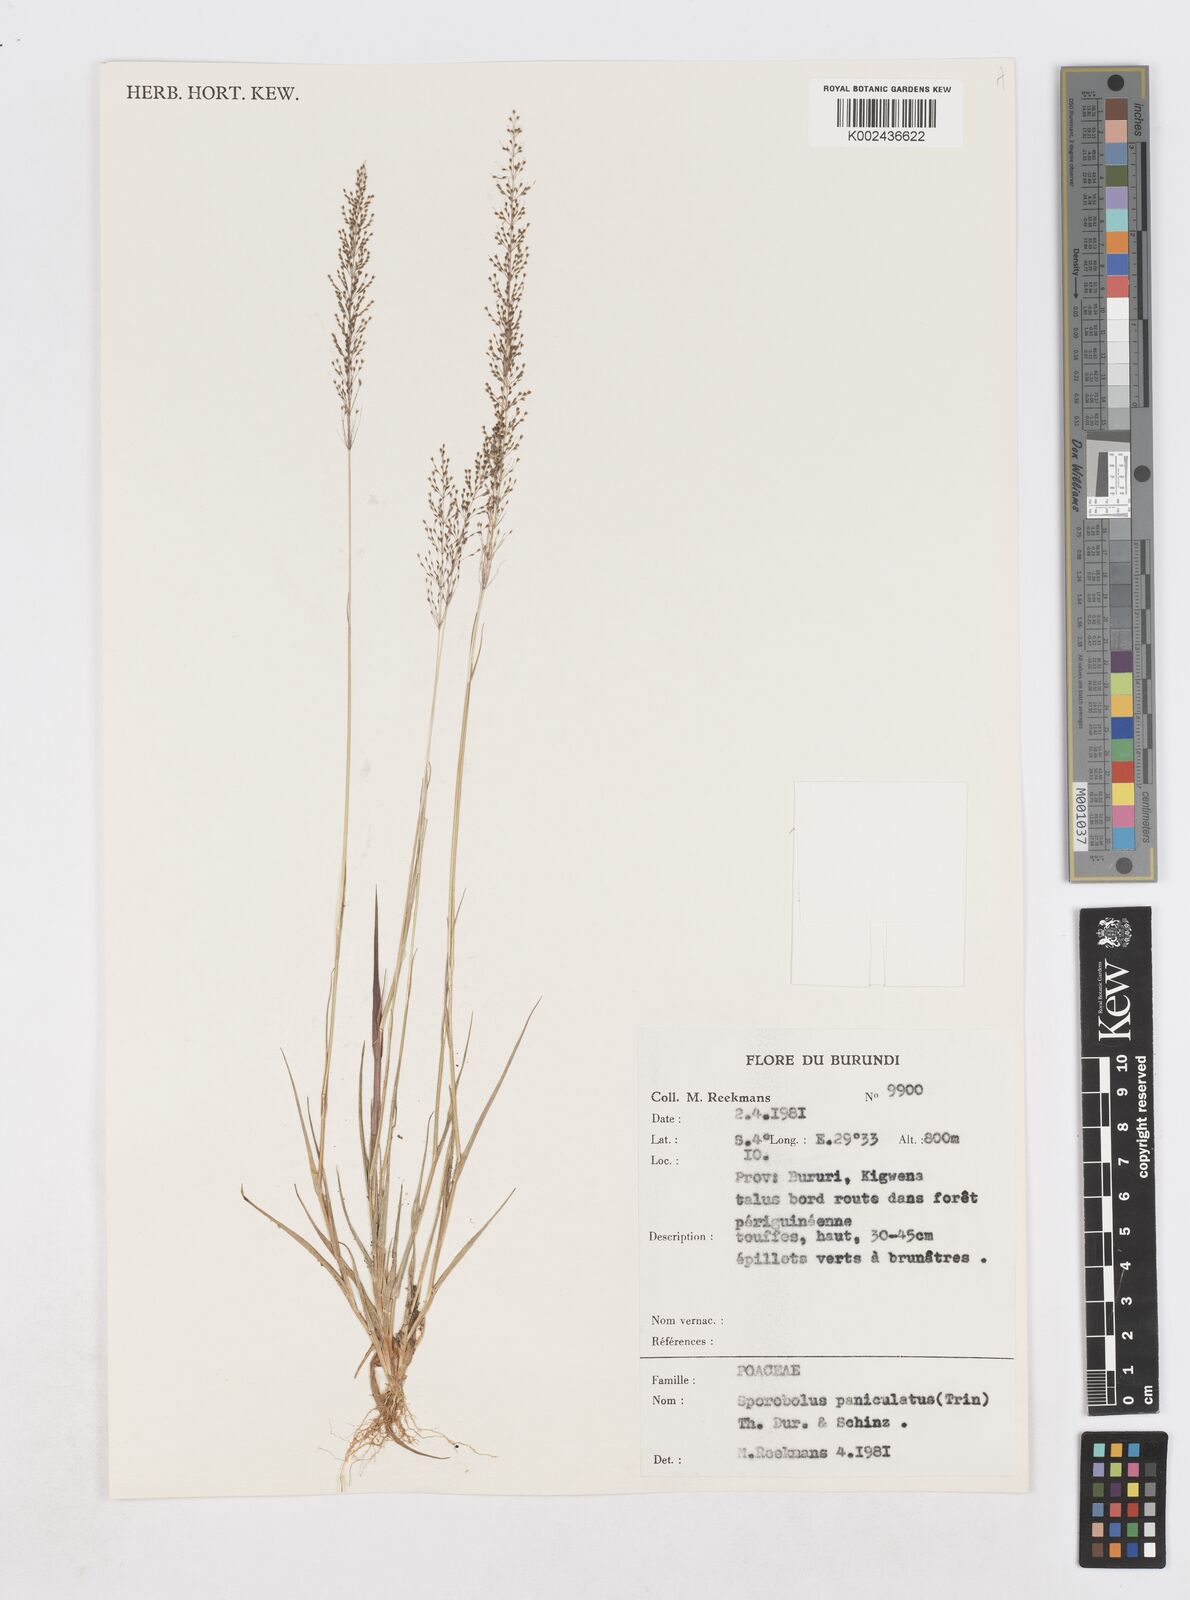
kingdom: Plantae
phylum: Tracheophyta
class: Liliopsida
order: Poales
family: Poaceae
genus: Sporobolus
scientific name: Sporobolus paniculatus
